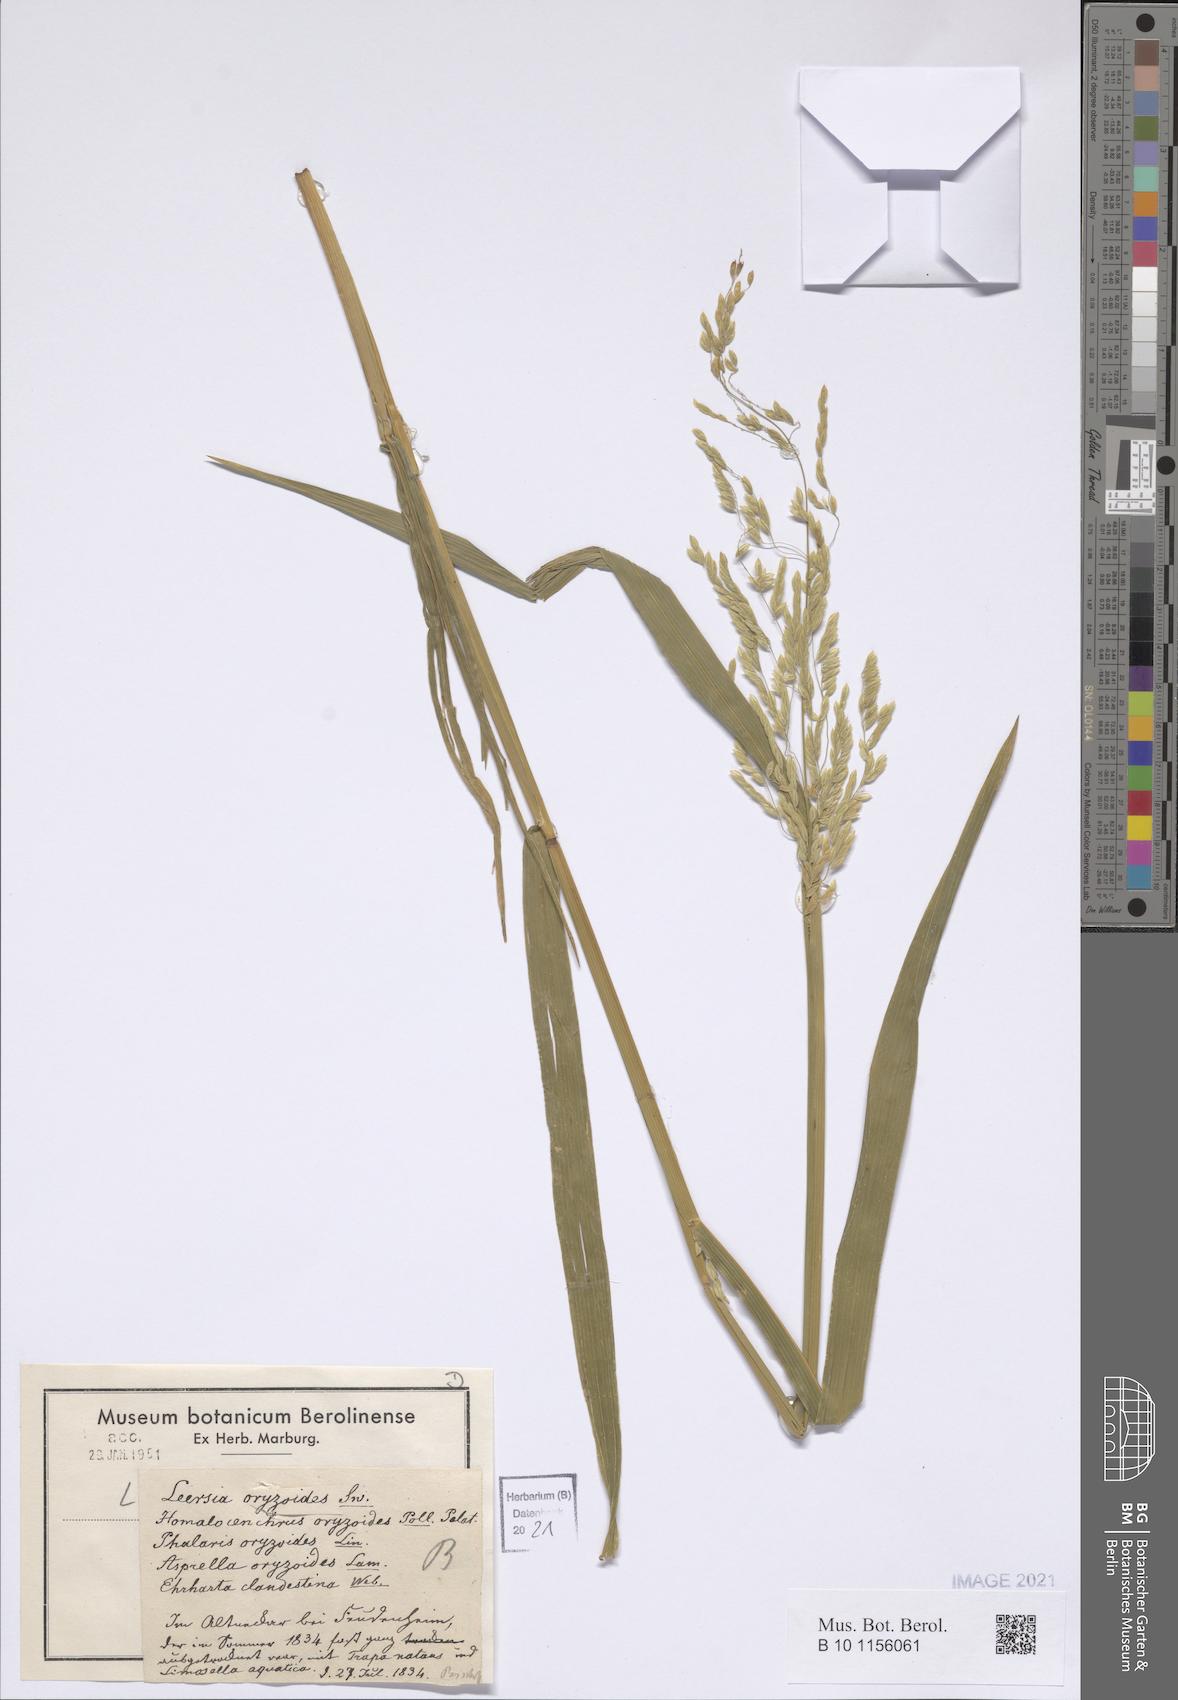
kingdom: Plantae
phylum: Tracheophyta
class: Liliopsida
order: Poales
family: Poaceae
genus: Leersia
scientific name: Leersia oryzoides
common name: Cut-grass
